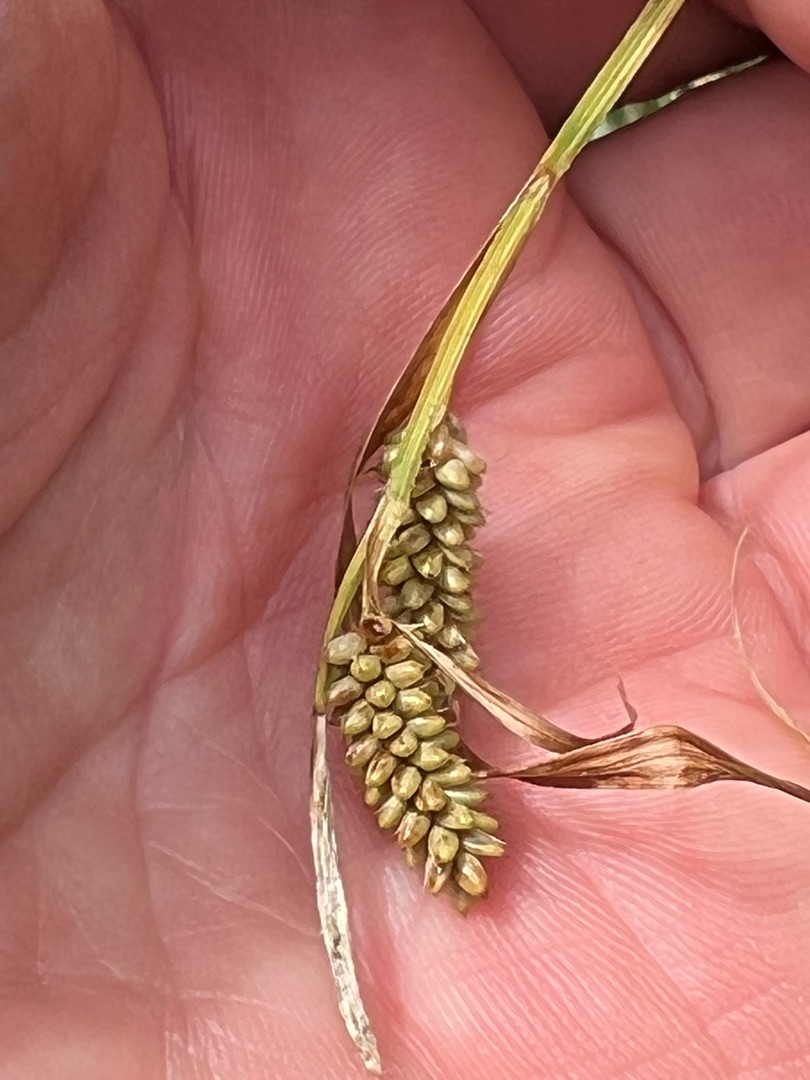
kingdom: Plantae
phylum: Tracheophyta
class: Liliopsida
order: Poales
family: Cyperaceae
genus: Carex
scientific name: Carex pallescens
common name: Bleg star
